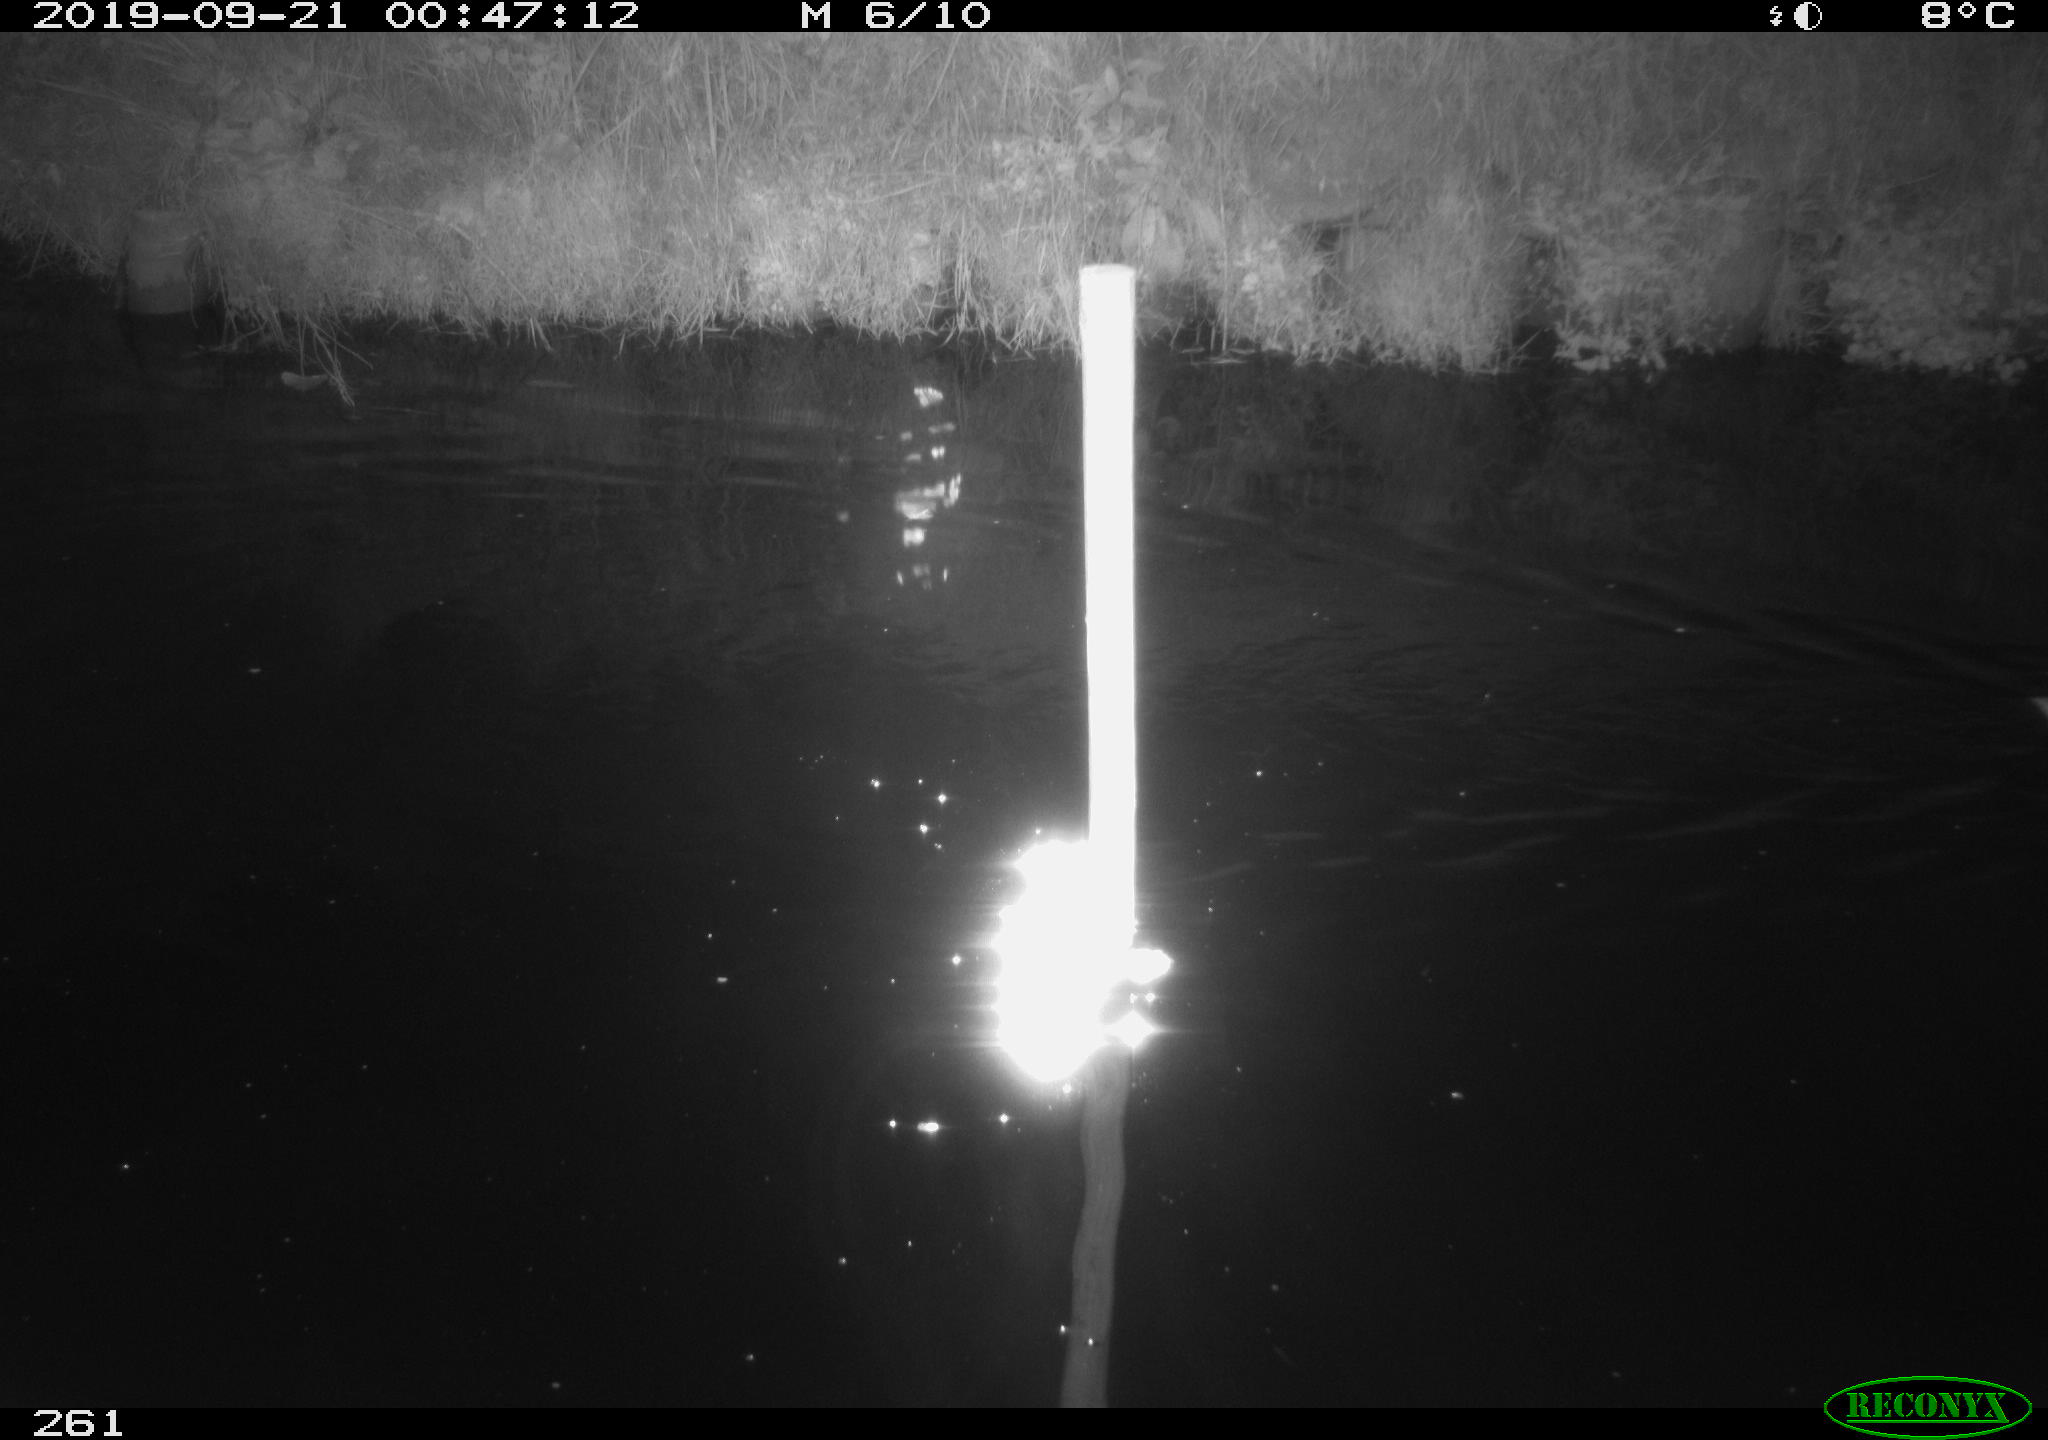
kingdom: Animalia
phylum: Chordata
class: Aves
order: Anseriformes
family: Anatidae
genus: Anas
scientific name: Anas platyrhynchos
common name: Mallard
